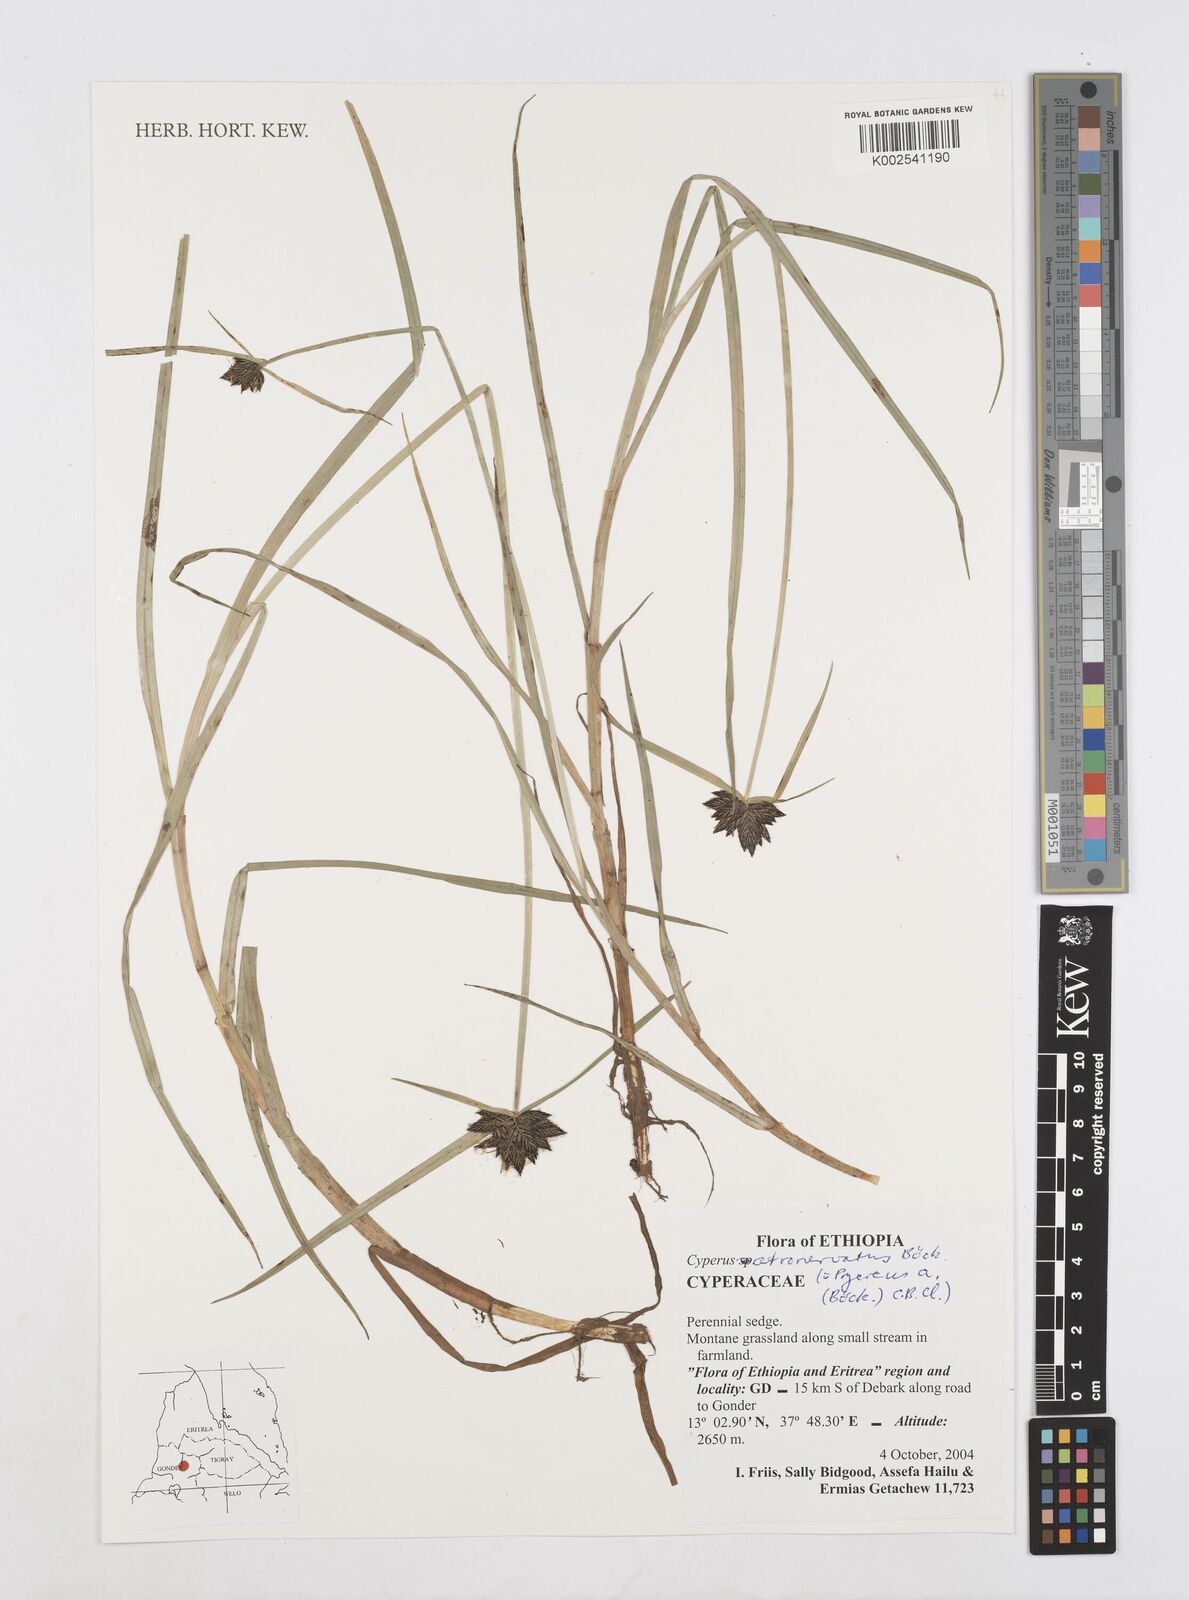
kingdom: Plantae
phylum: Tracheophyta
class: Liliopsida
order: Poales
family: Cyperaceae
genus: Cyperus
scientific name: Cyperus atronervatus
